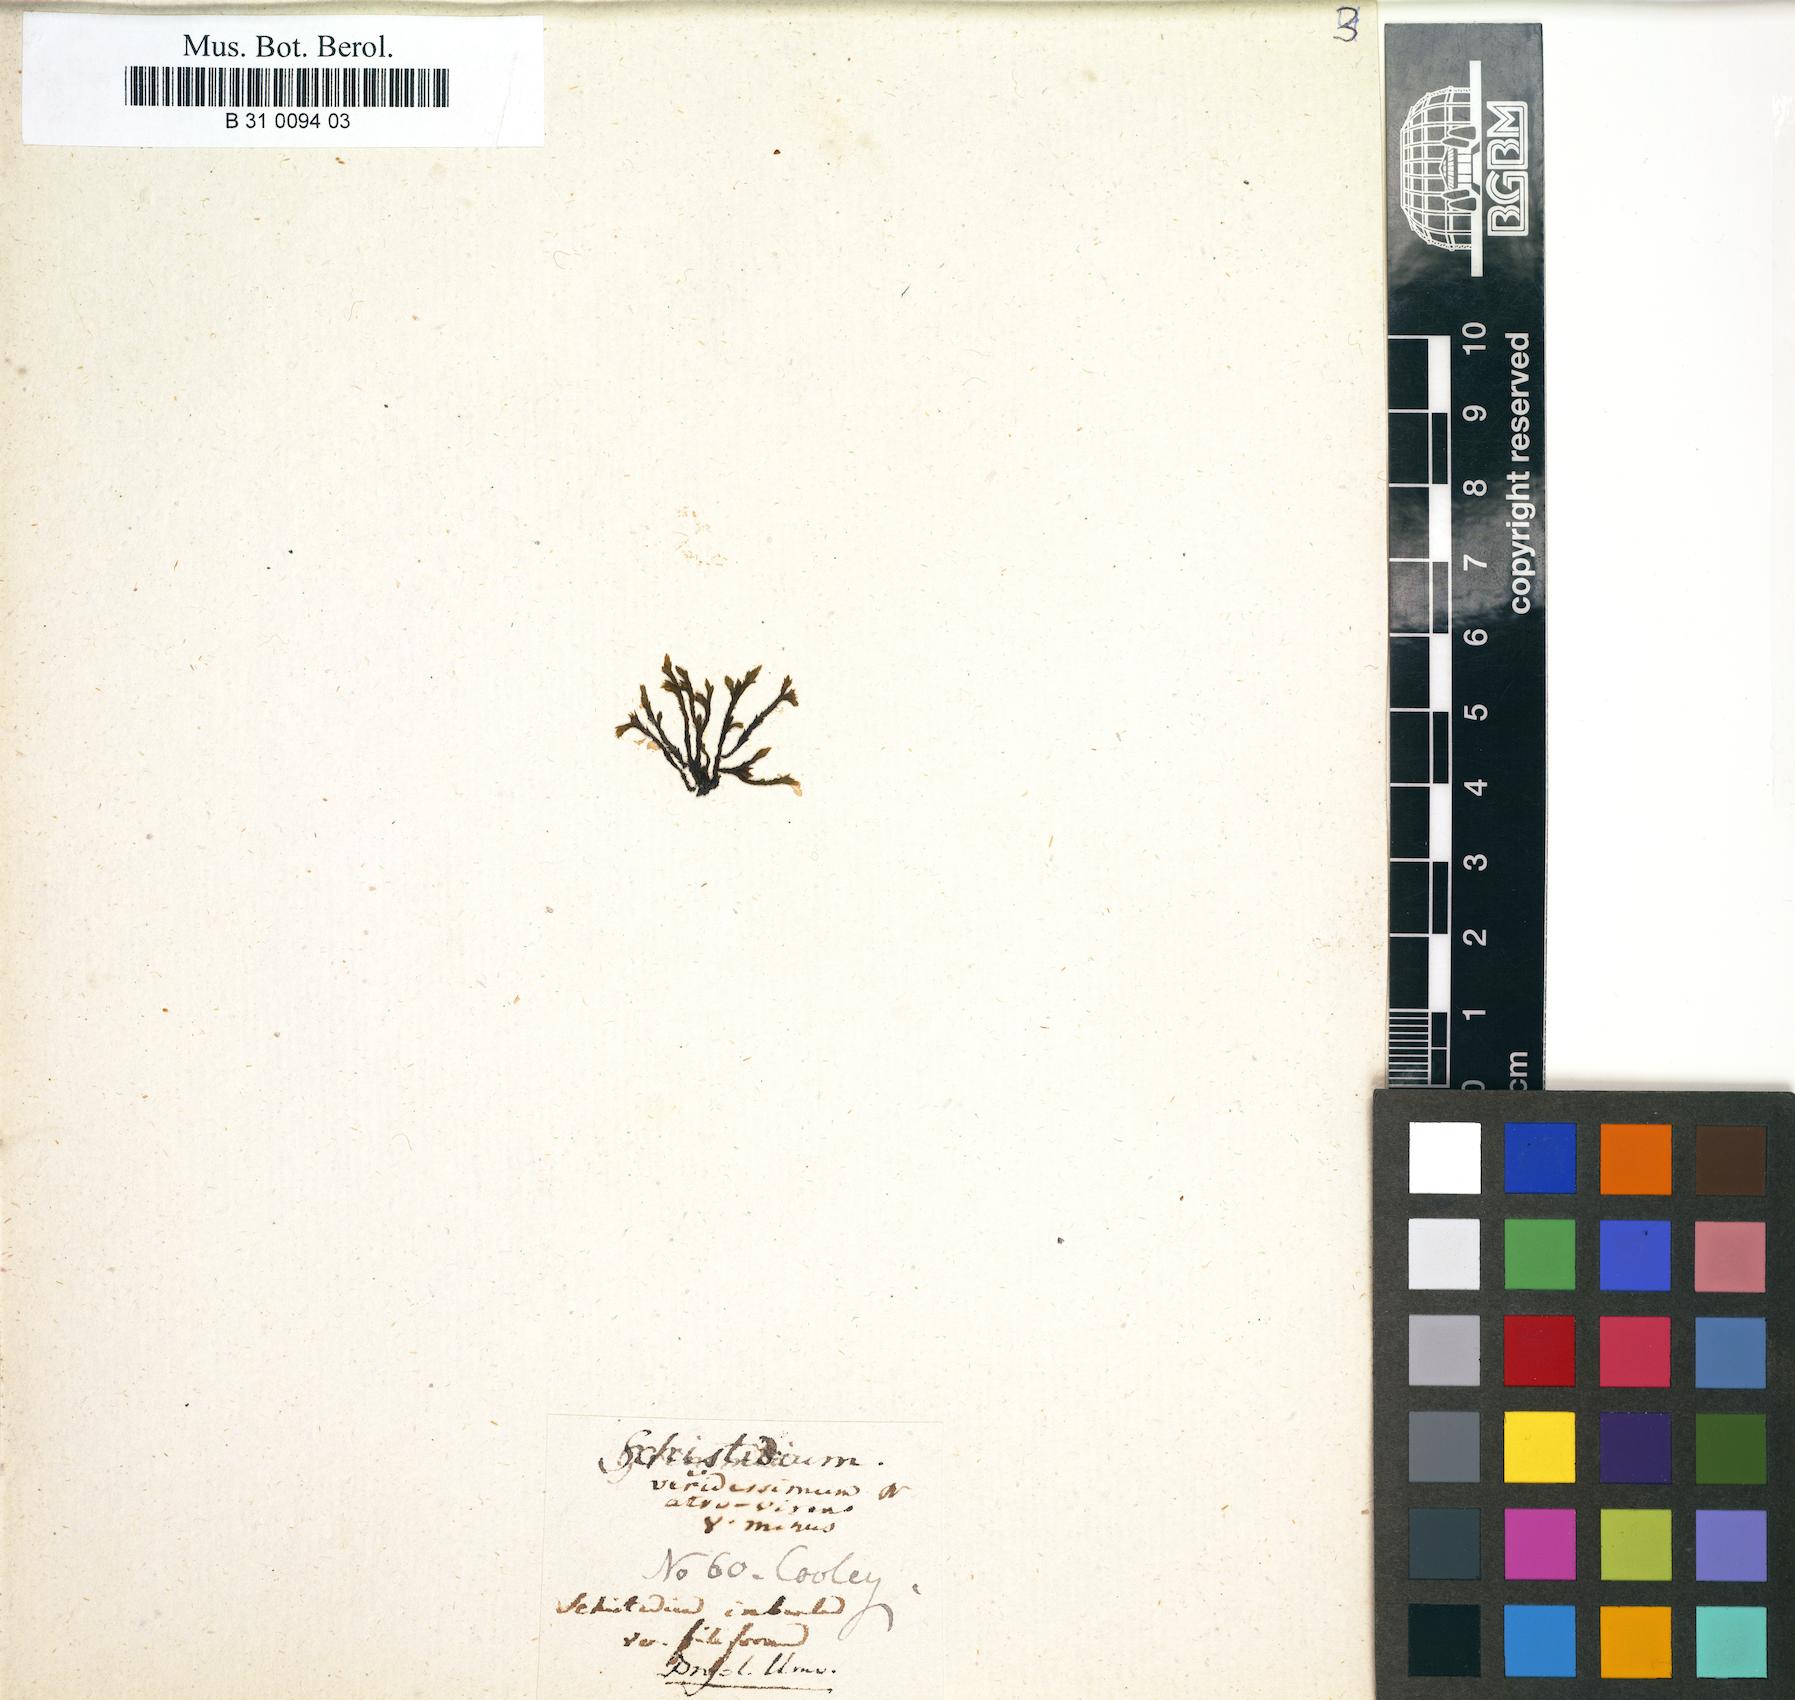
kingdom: Plantae
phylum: Bryophyta
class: Bryopsida
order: Hedwigiales
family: Hedwigiaceae
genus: Hedwigidium
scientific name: Hedwigidium imberbe
